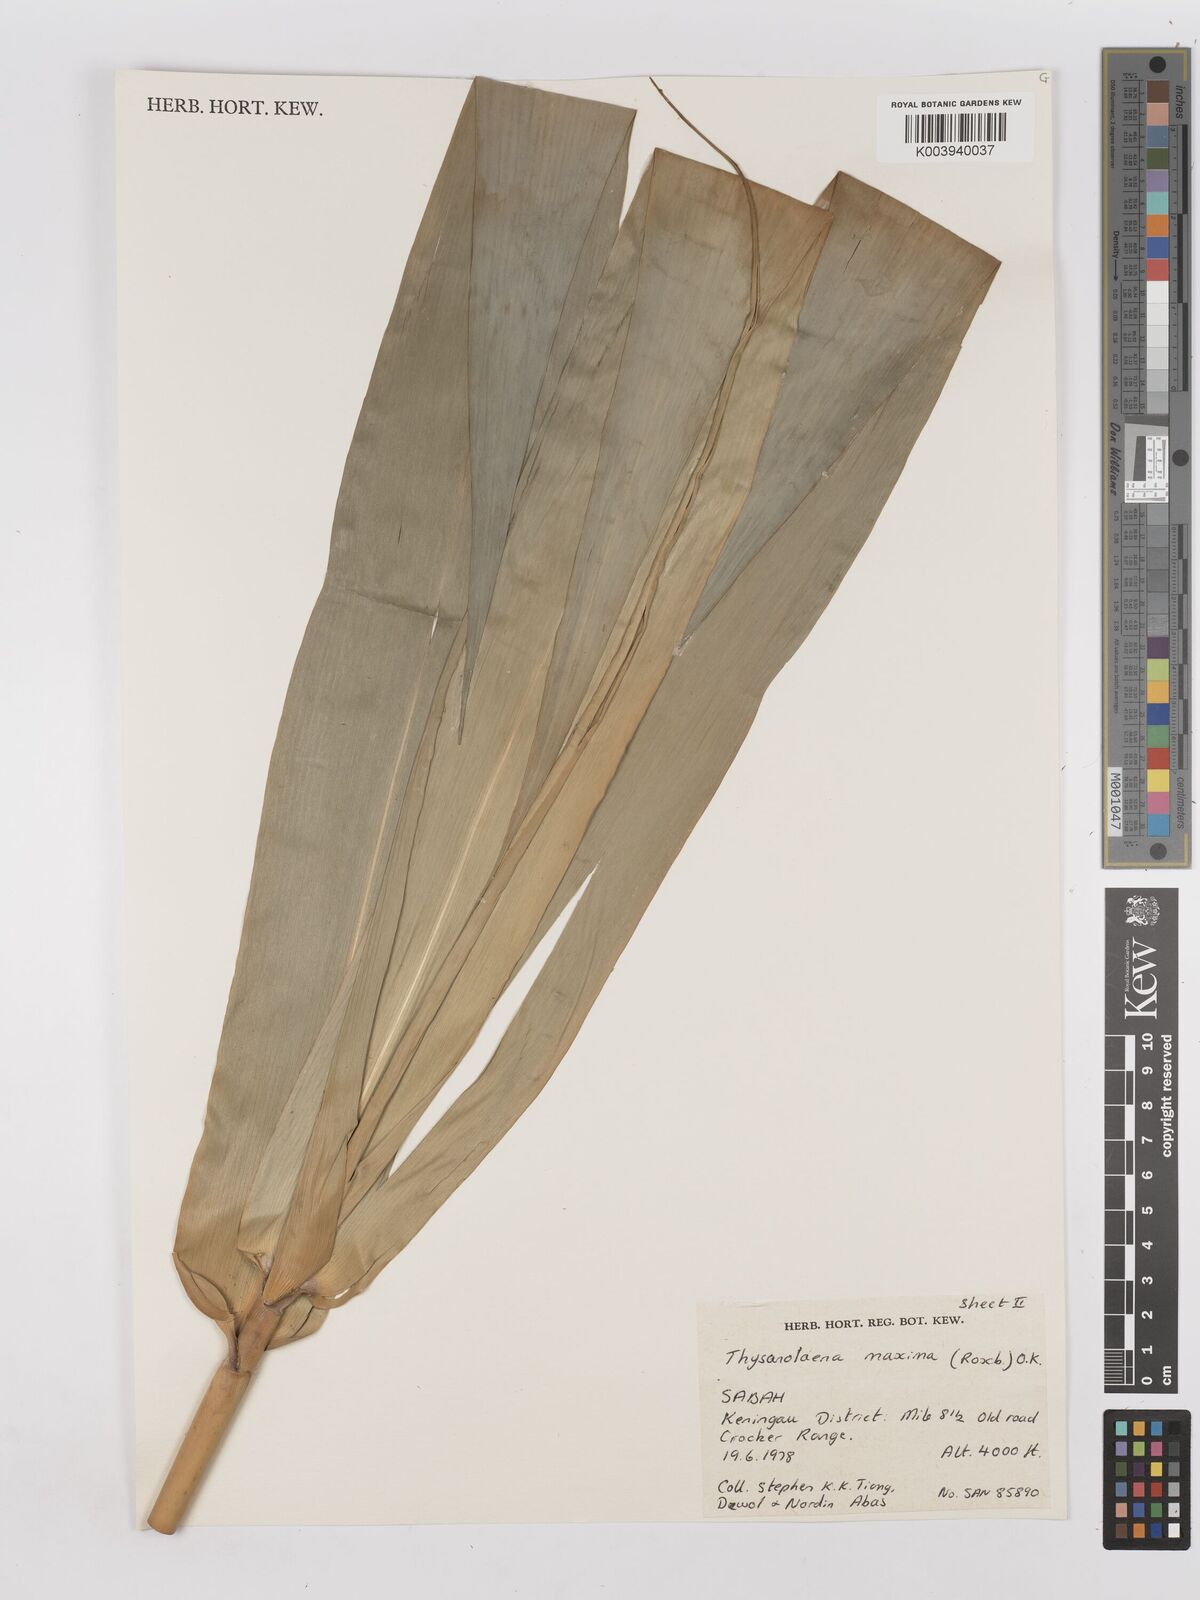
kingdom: Plantae
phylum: Tracheophyta
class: Liliopsida
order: Poales
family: Poaceae
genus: Thysanolaena
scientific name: Thysanolaena latifolia
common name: Tiger grass
